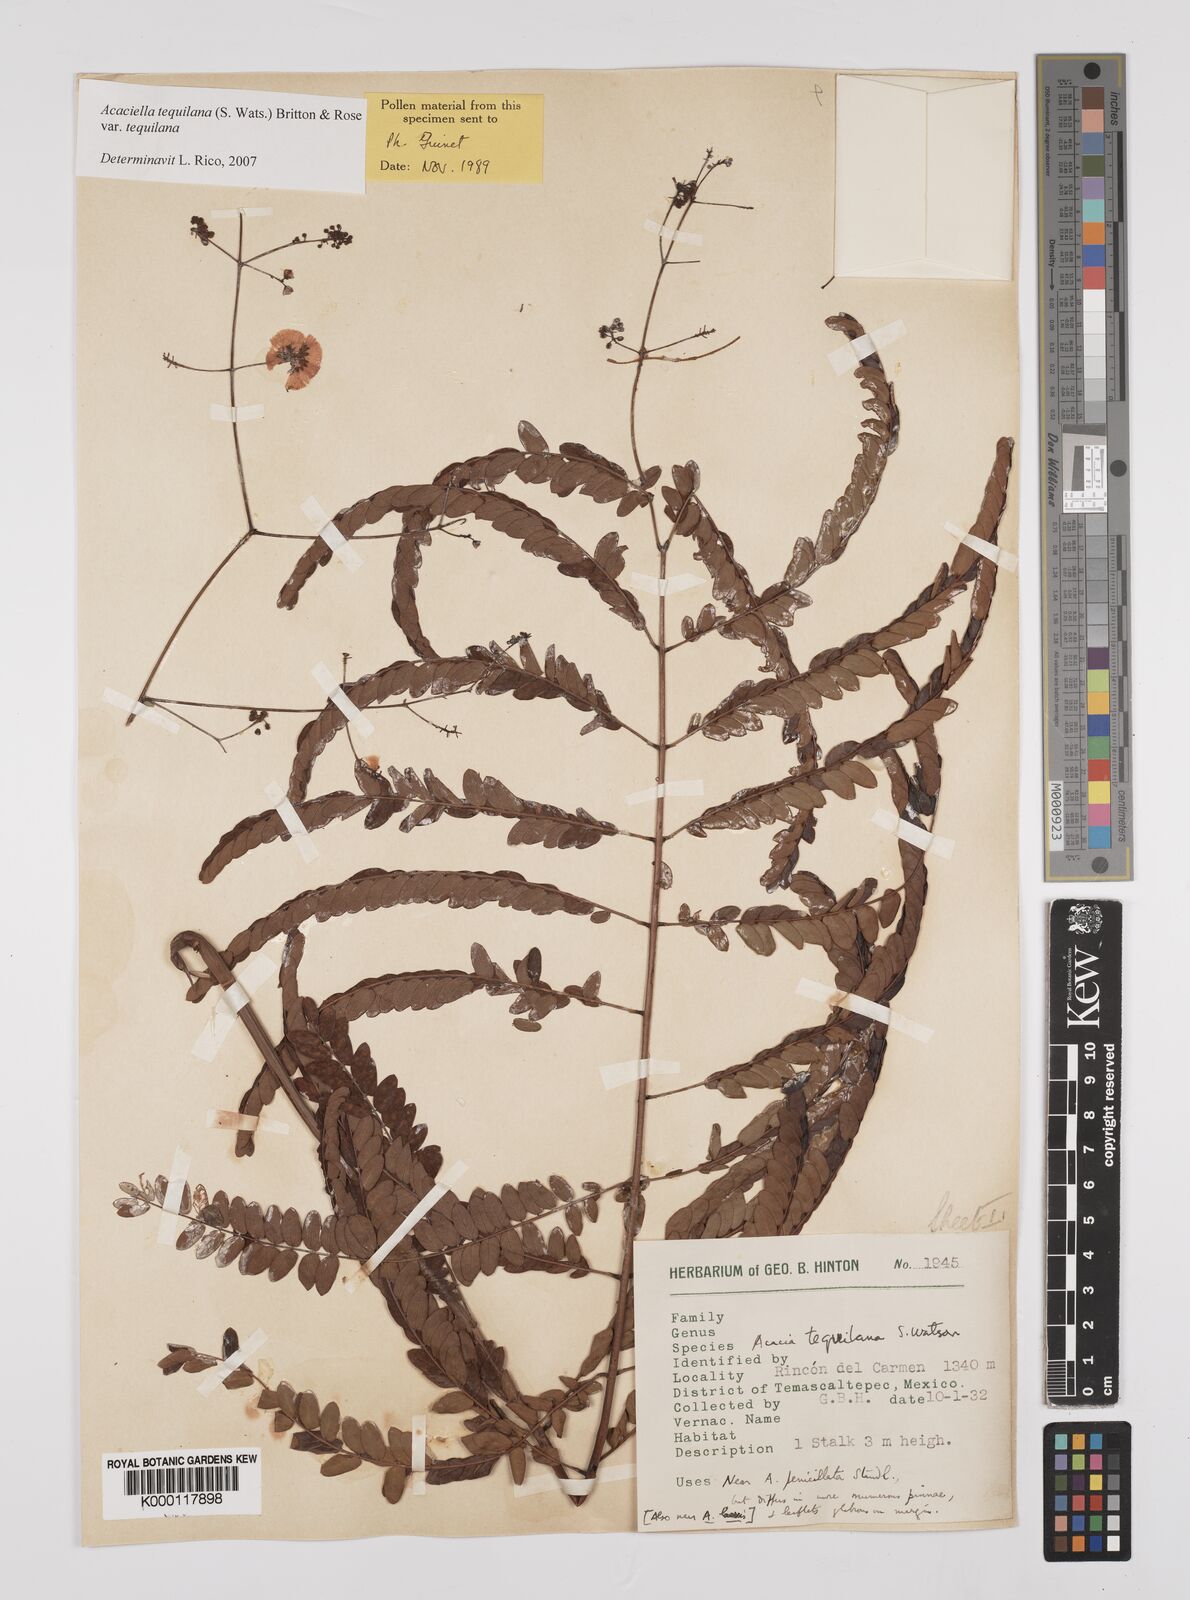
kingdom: Plantae
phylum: Tracheophyta
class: Magnoliopsida
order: Fabales
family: Fabaceae
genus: Acaciella
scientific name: Acaciella tequilana
